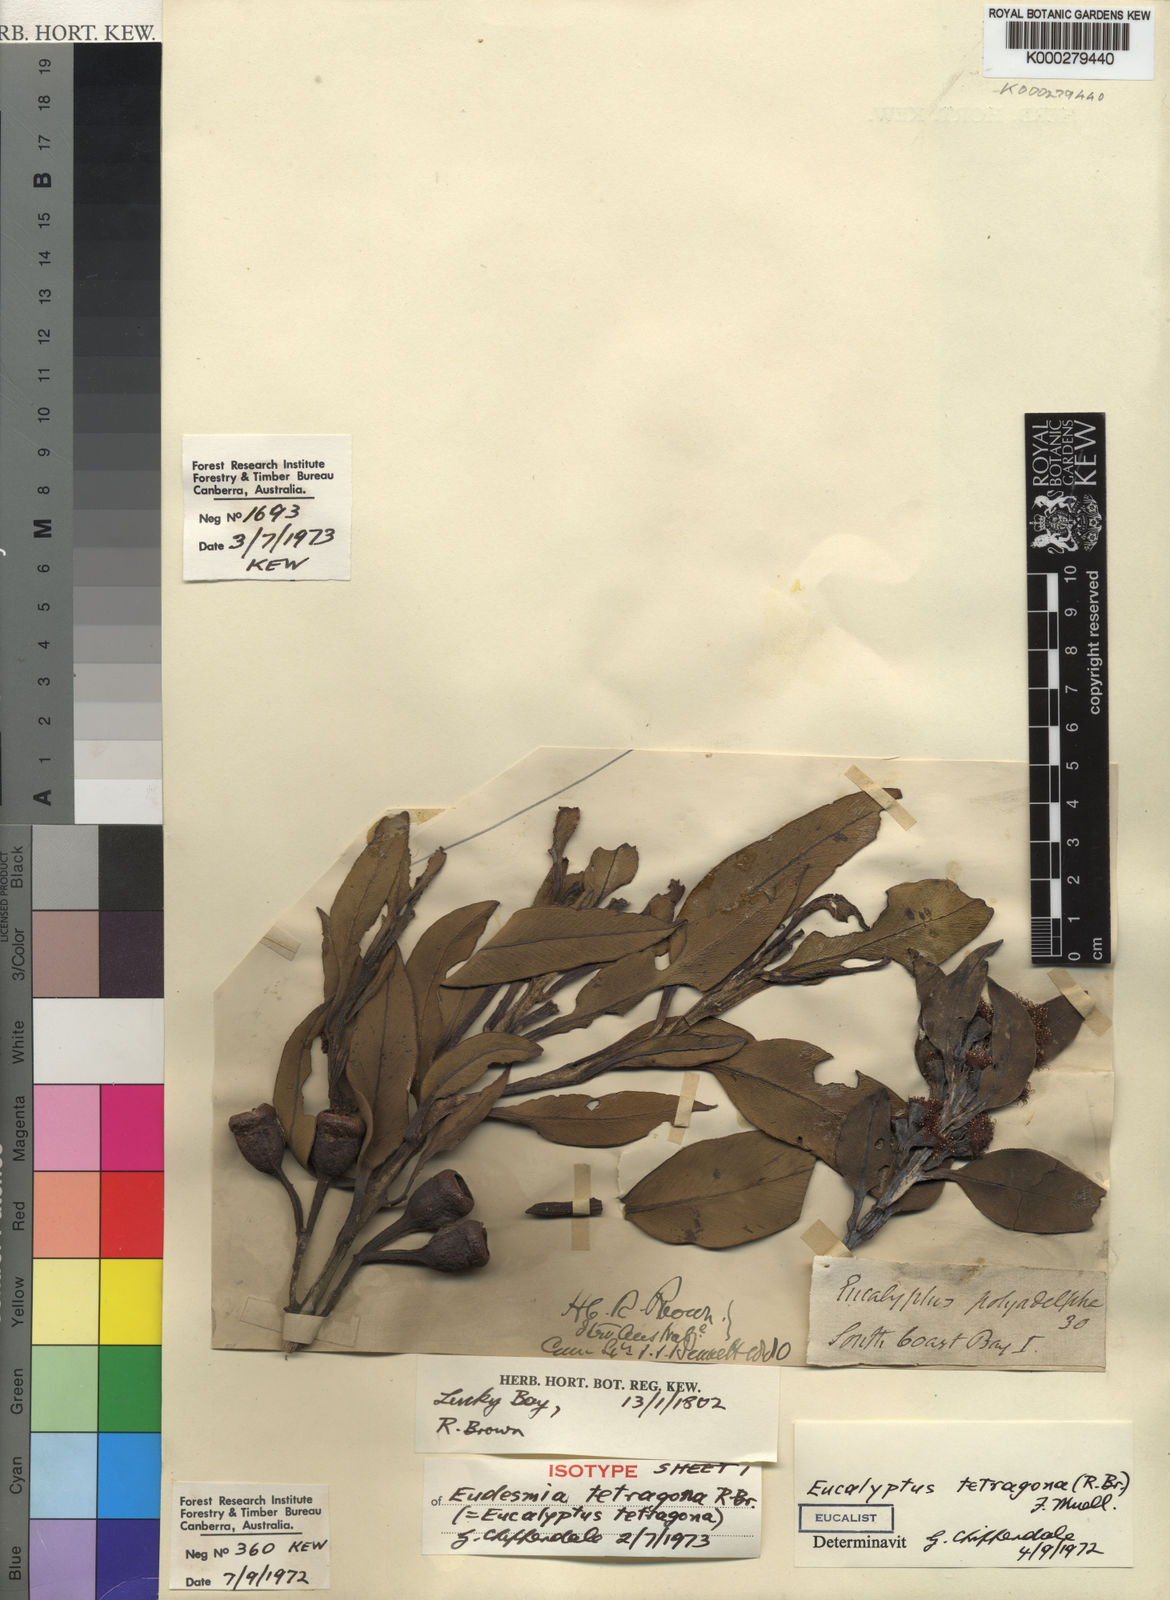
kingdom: Plantae
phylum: Tracheophyta
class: Magnoliopsida
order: Myrtales
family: Myrtaceae
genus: Eucalyptus
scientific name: Eucalyptus tetragona
